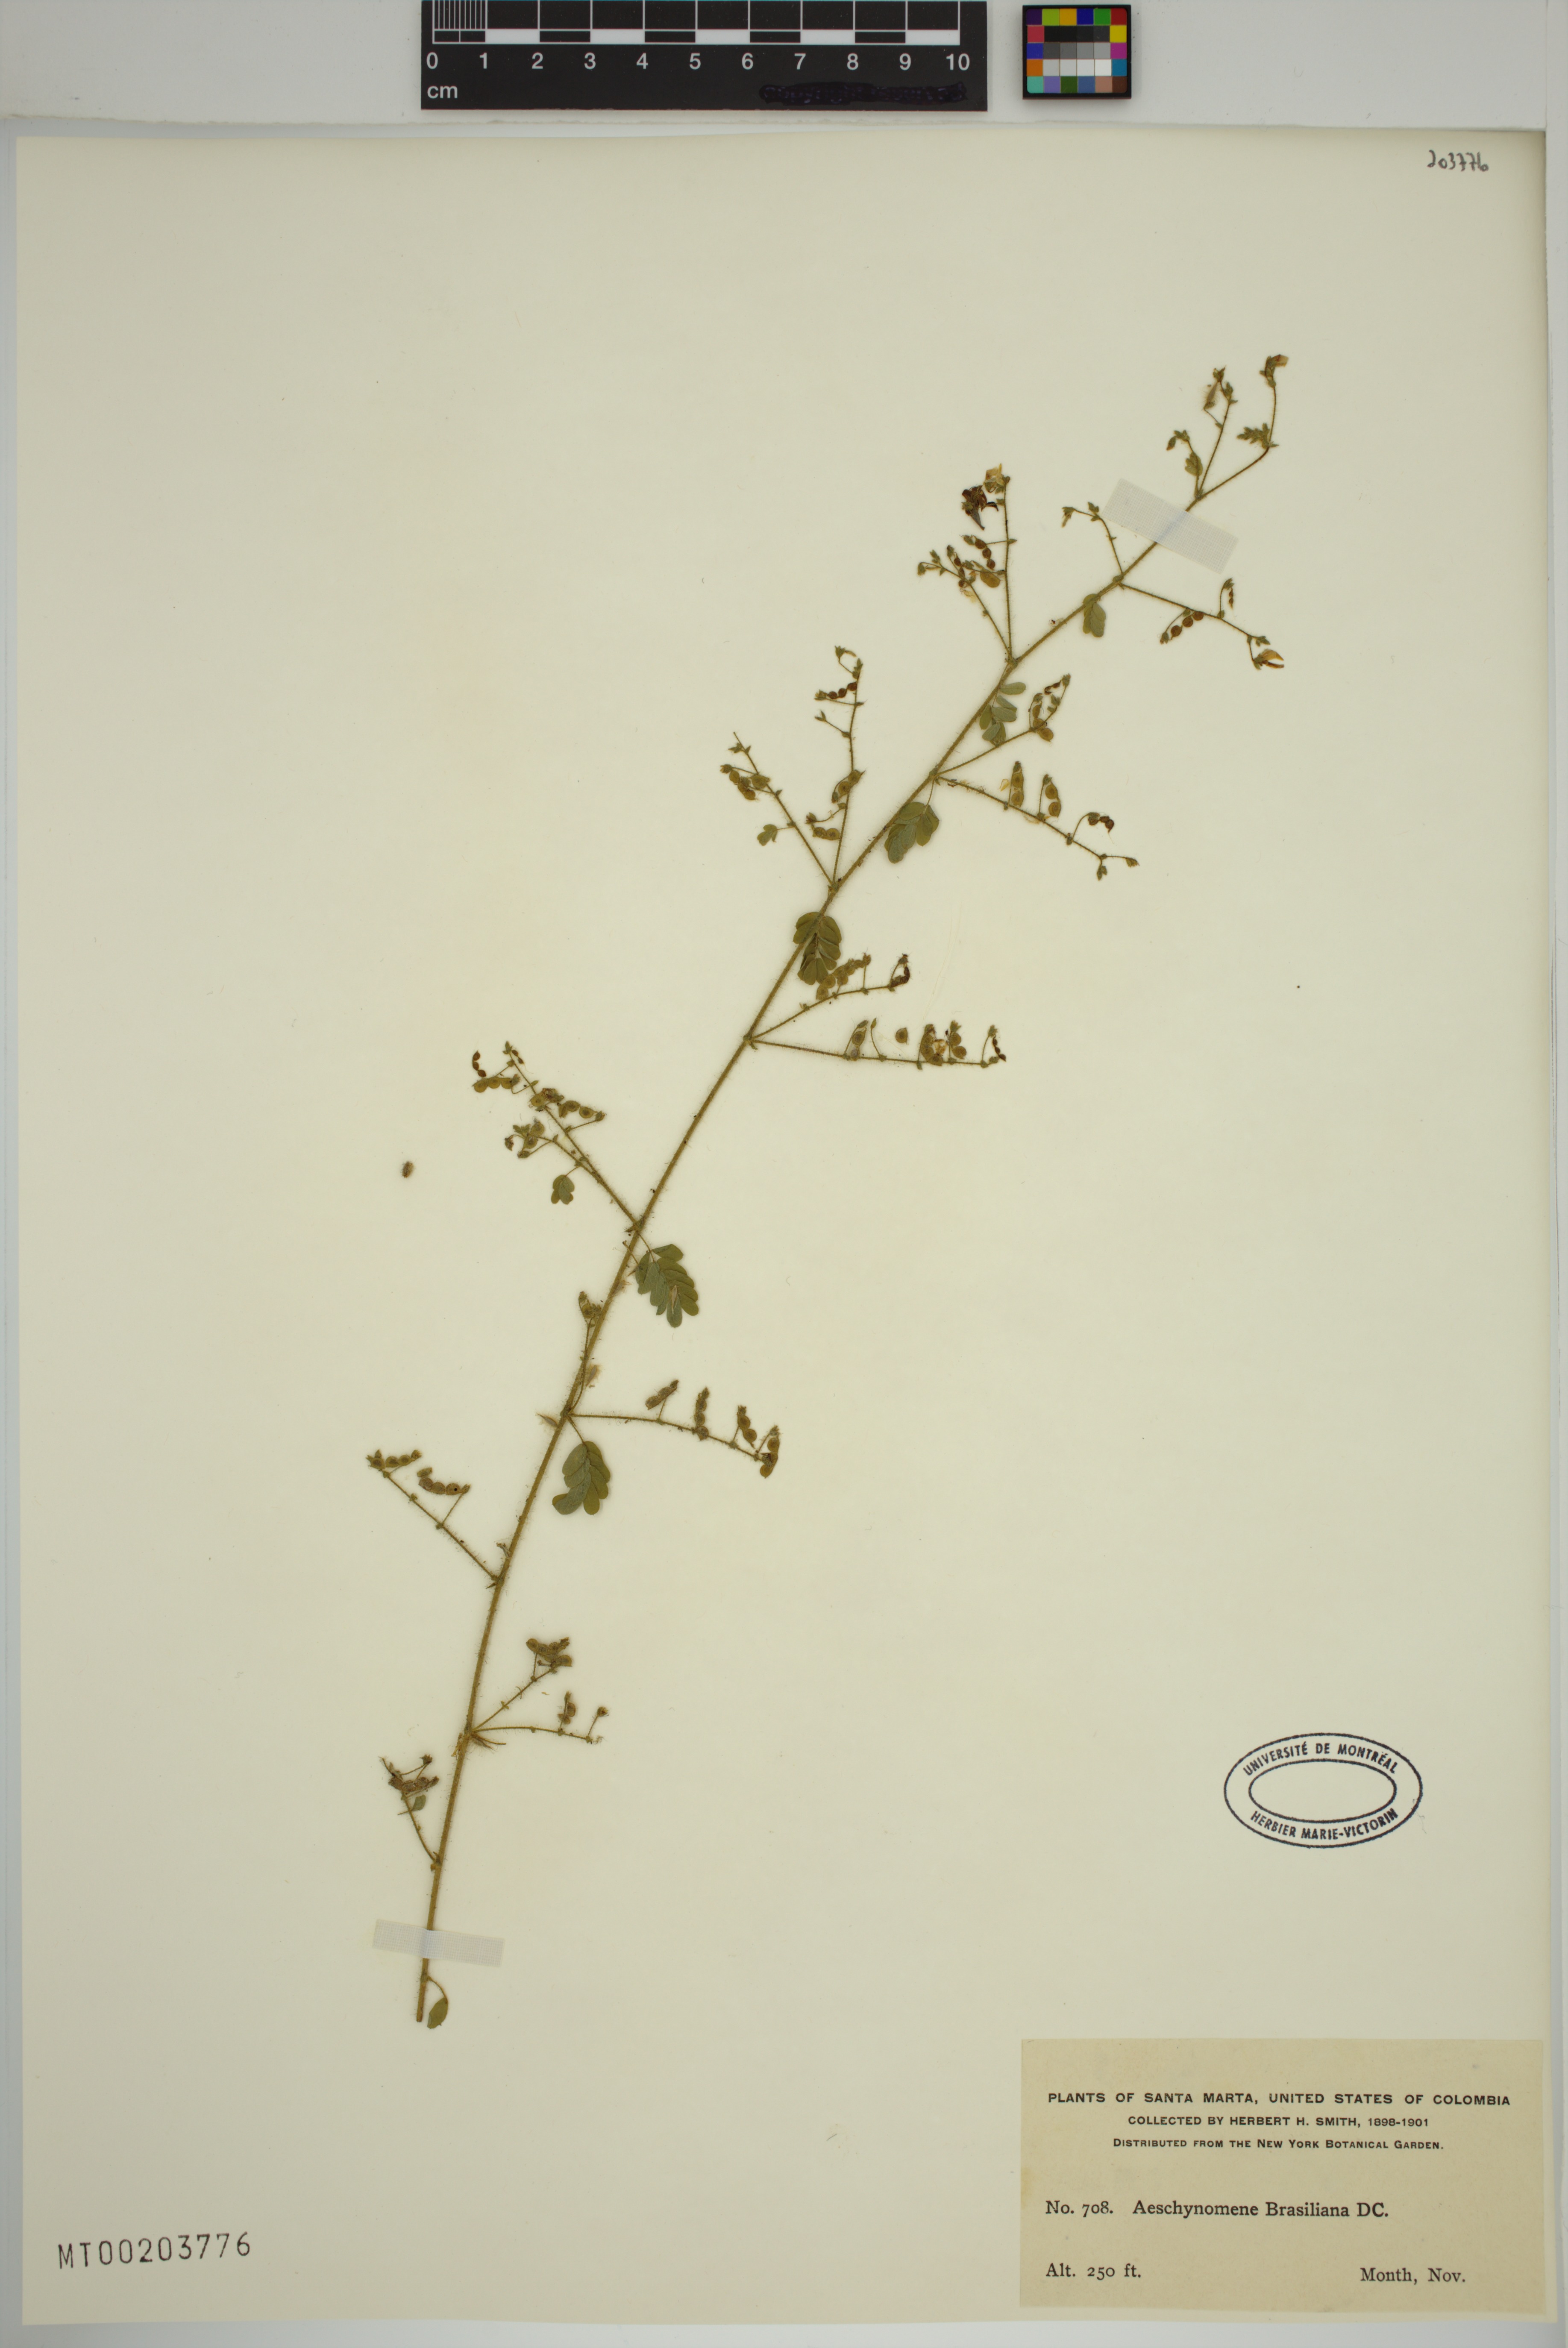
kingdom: Plantae
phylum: Tracheophyta
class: Magnoliopsida
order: Fabales
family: Fabaceae
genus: Ctenodon
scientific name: Ctenodon brasilianus
